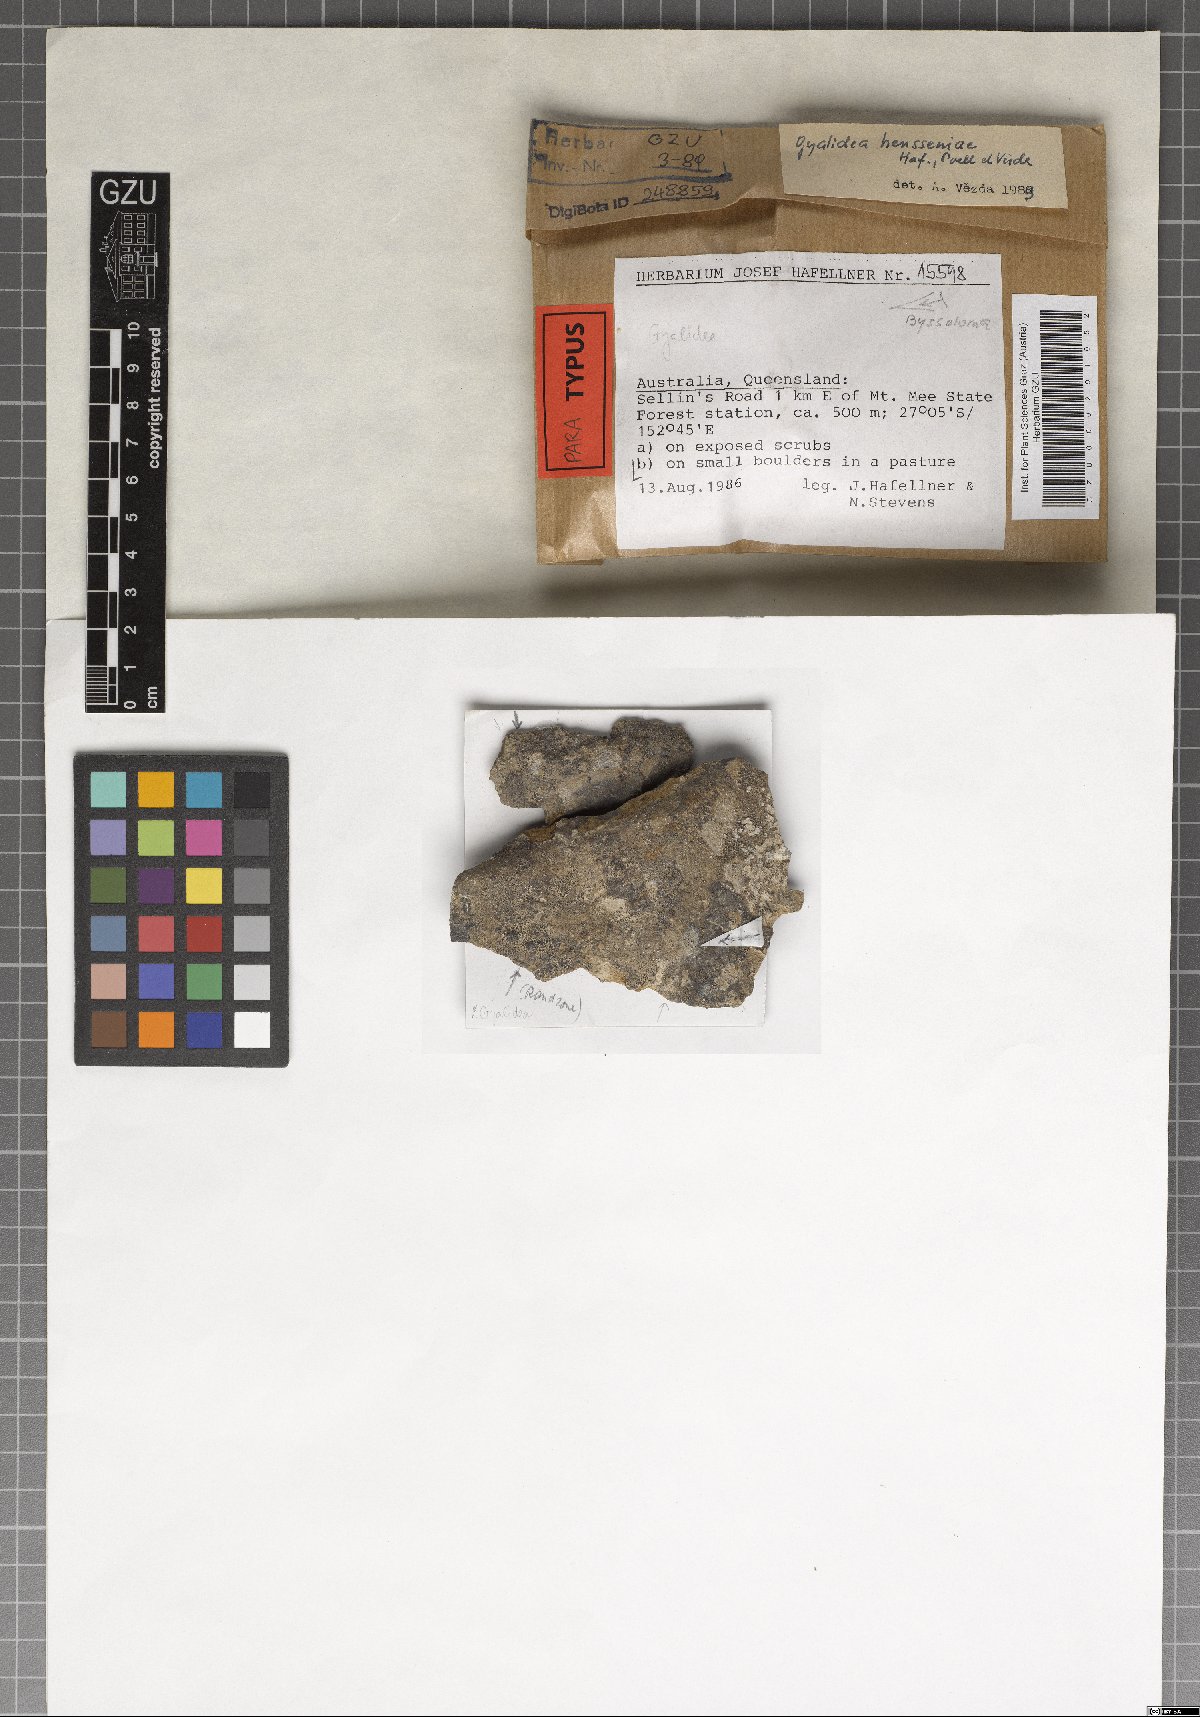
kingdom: Fungi
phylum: Ascomycota
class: Lecanoromycetes
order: Ostropales
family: Gomphillaceae
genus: Gyalidea
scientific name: Gyalidea hensseniae
